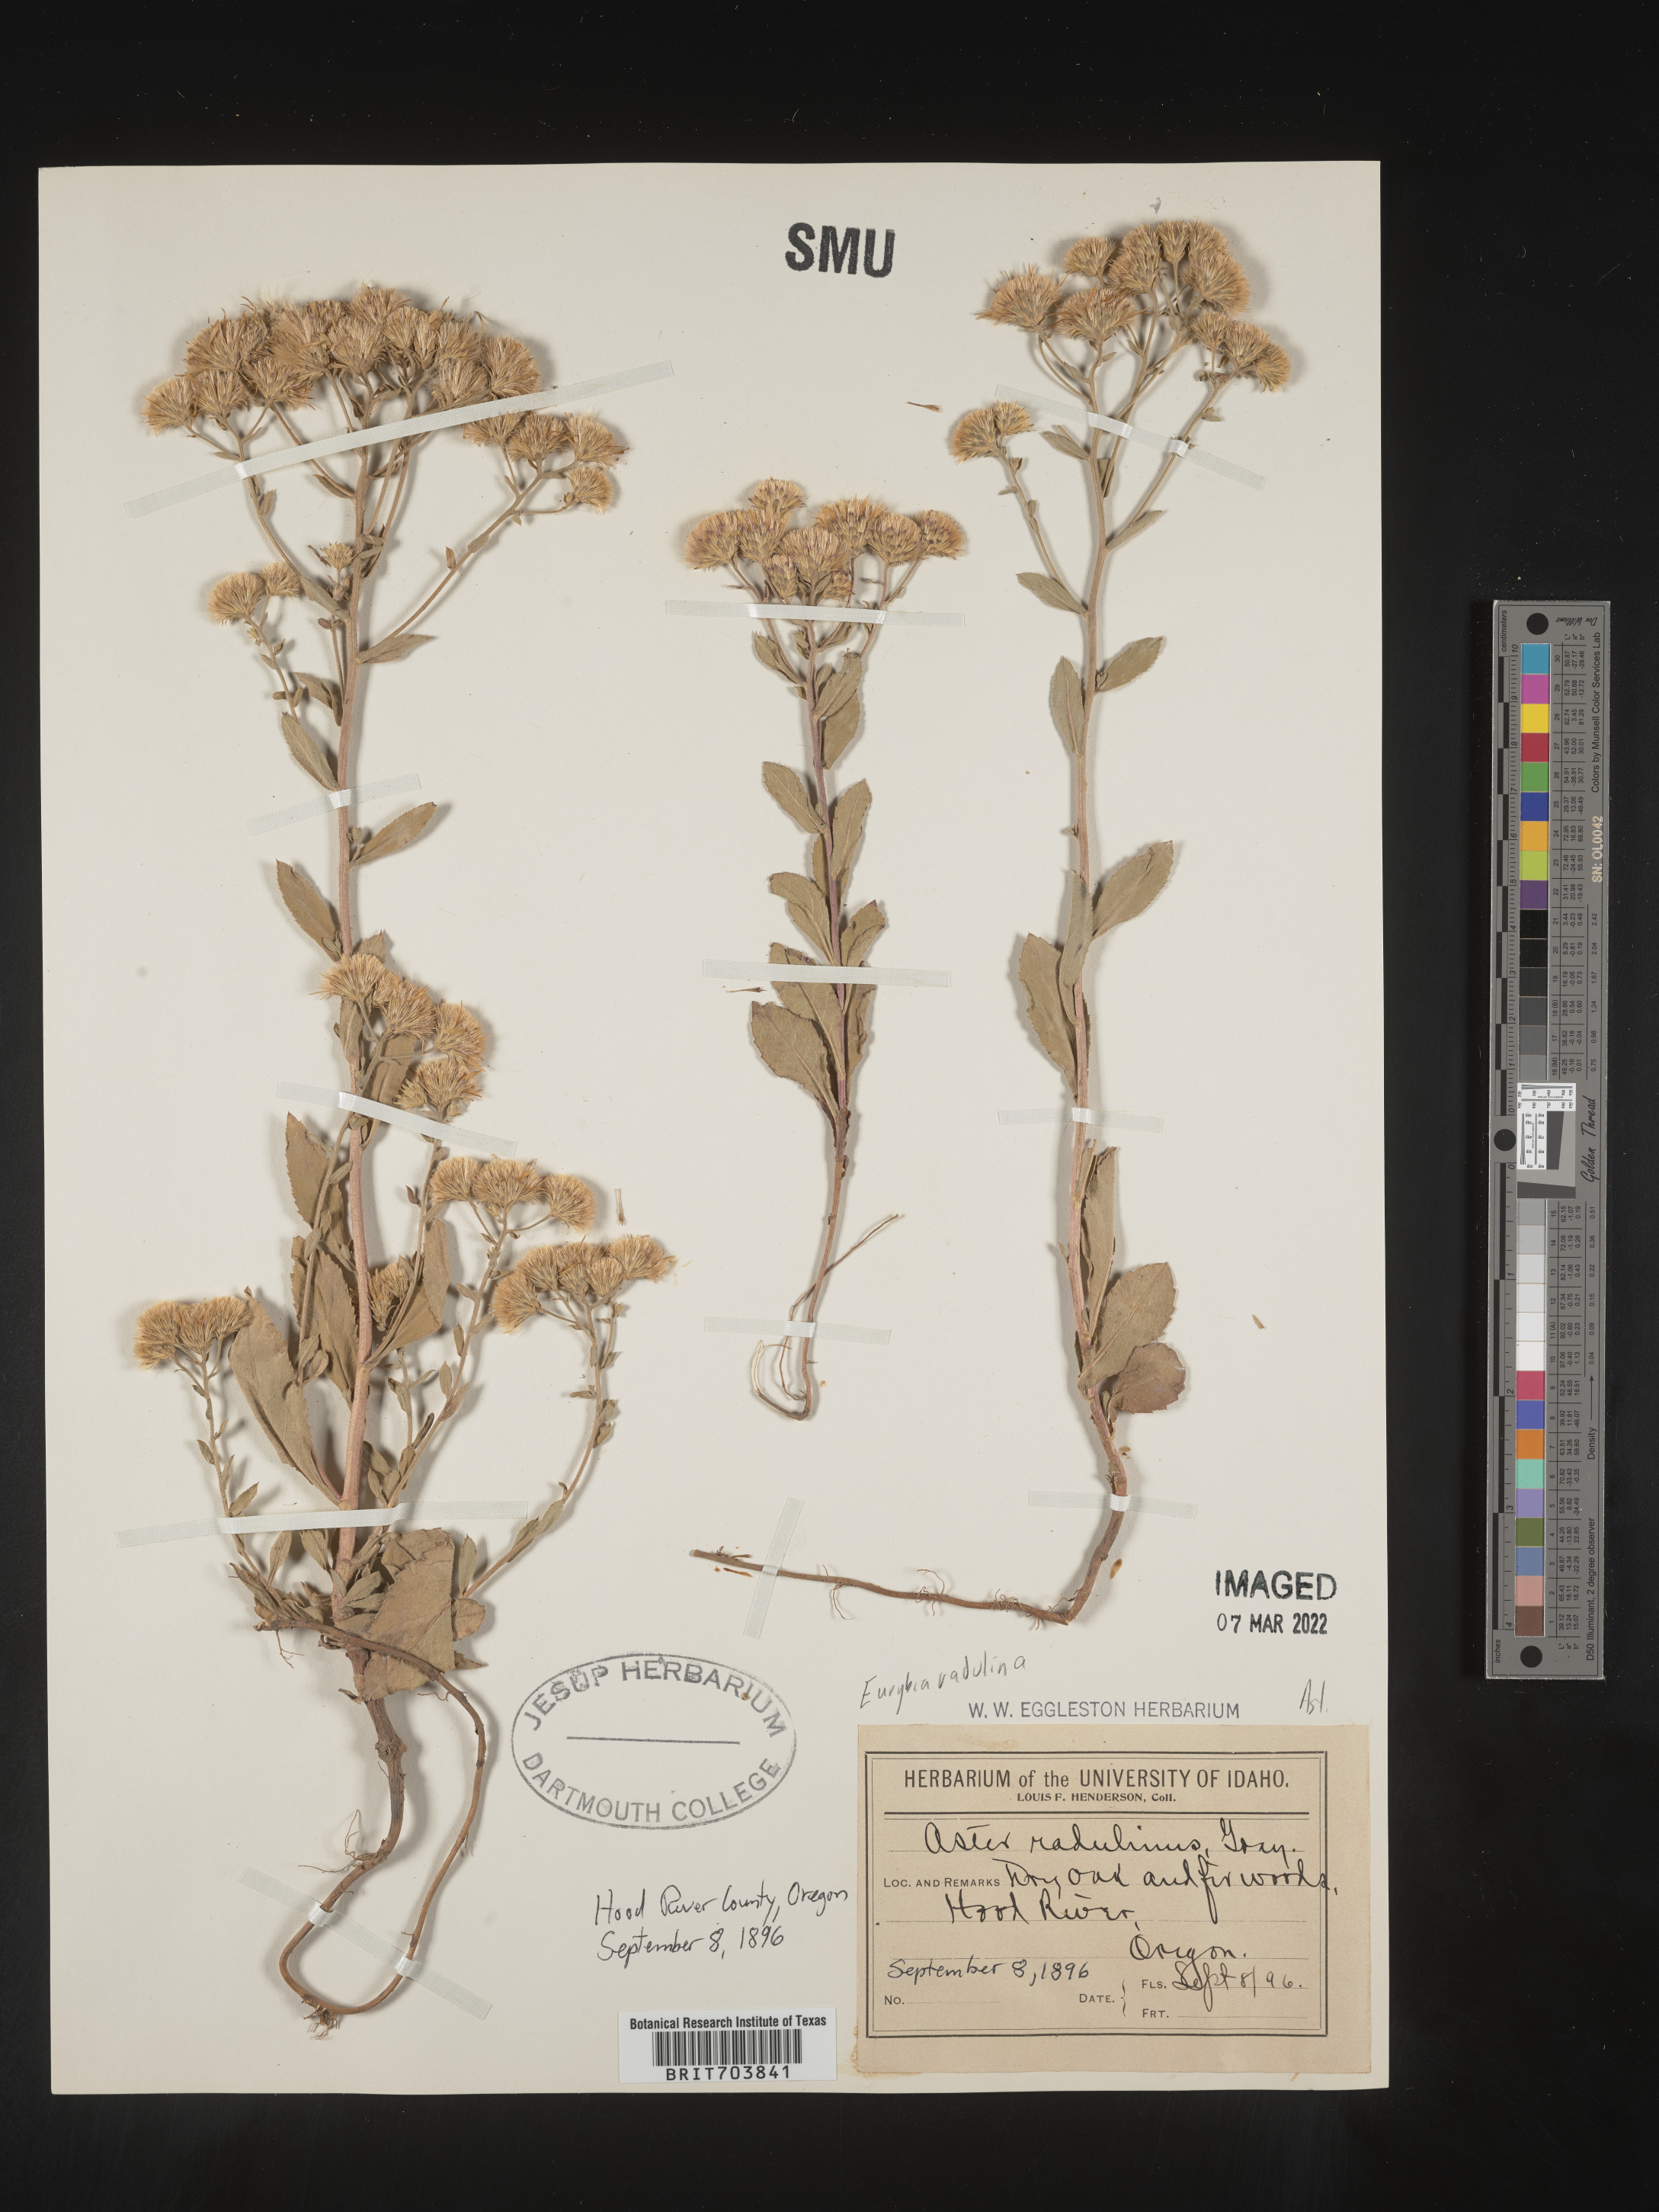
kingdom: Plantae
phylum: Tracheophyta
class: Magnoliopsida
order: Asterales
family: Asteraceae
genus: Eurybia
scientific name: Eurybia radulina
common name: Rough-leaved aster
